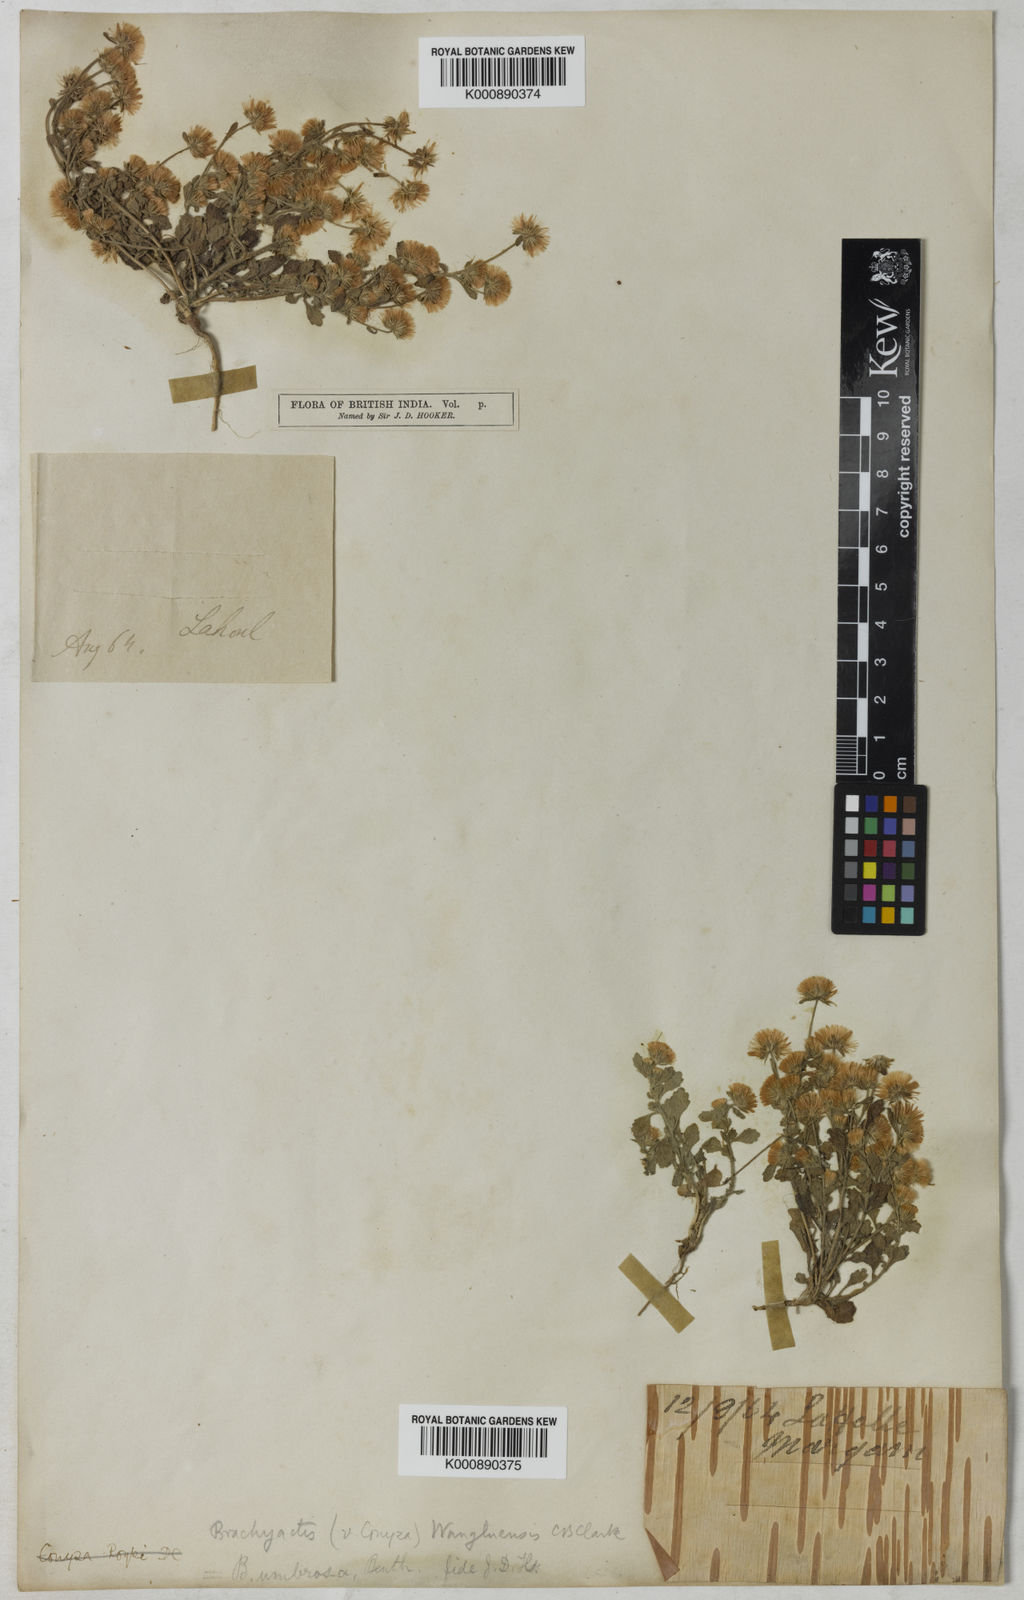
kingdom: Plantae
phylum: Tracheophyta
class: Magnoliopsida
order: Asterales
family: Asteraceae
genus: Neobrachyactis
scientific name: Neobrachyactis roylei
